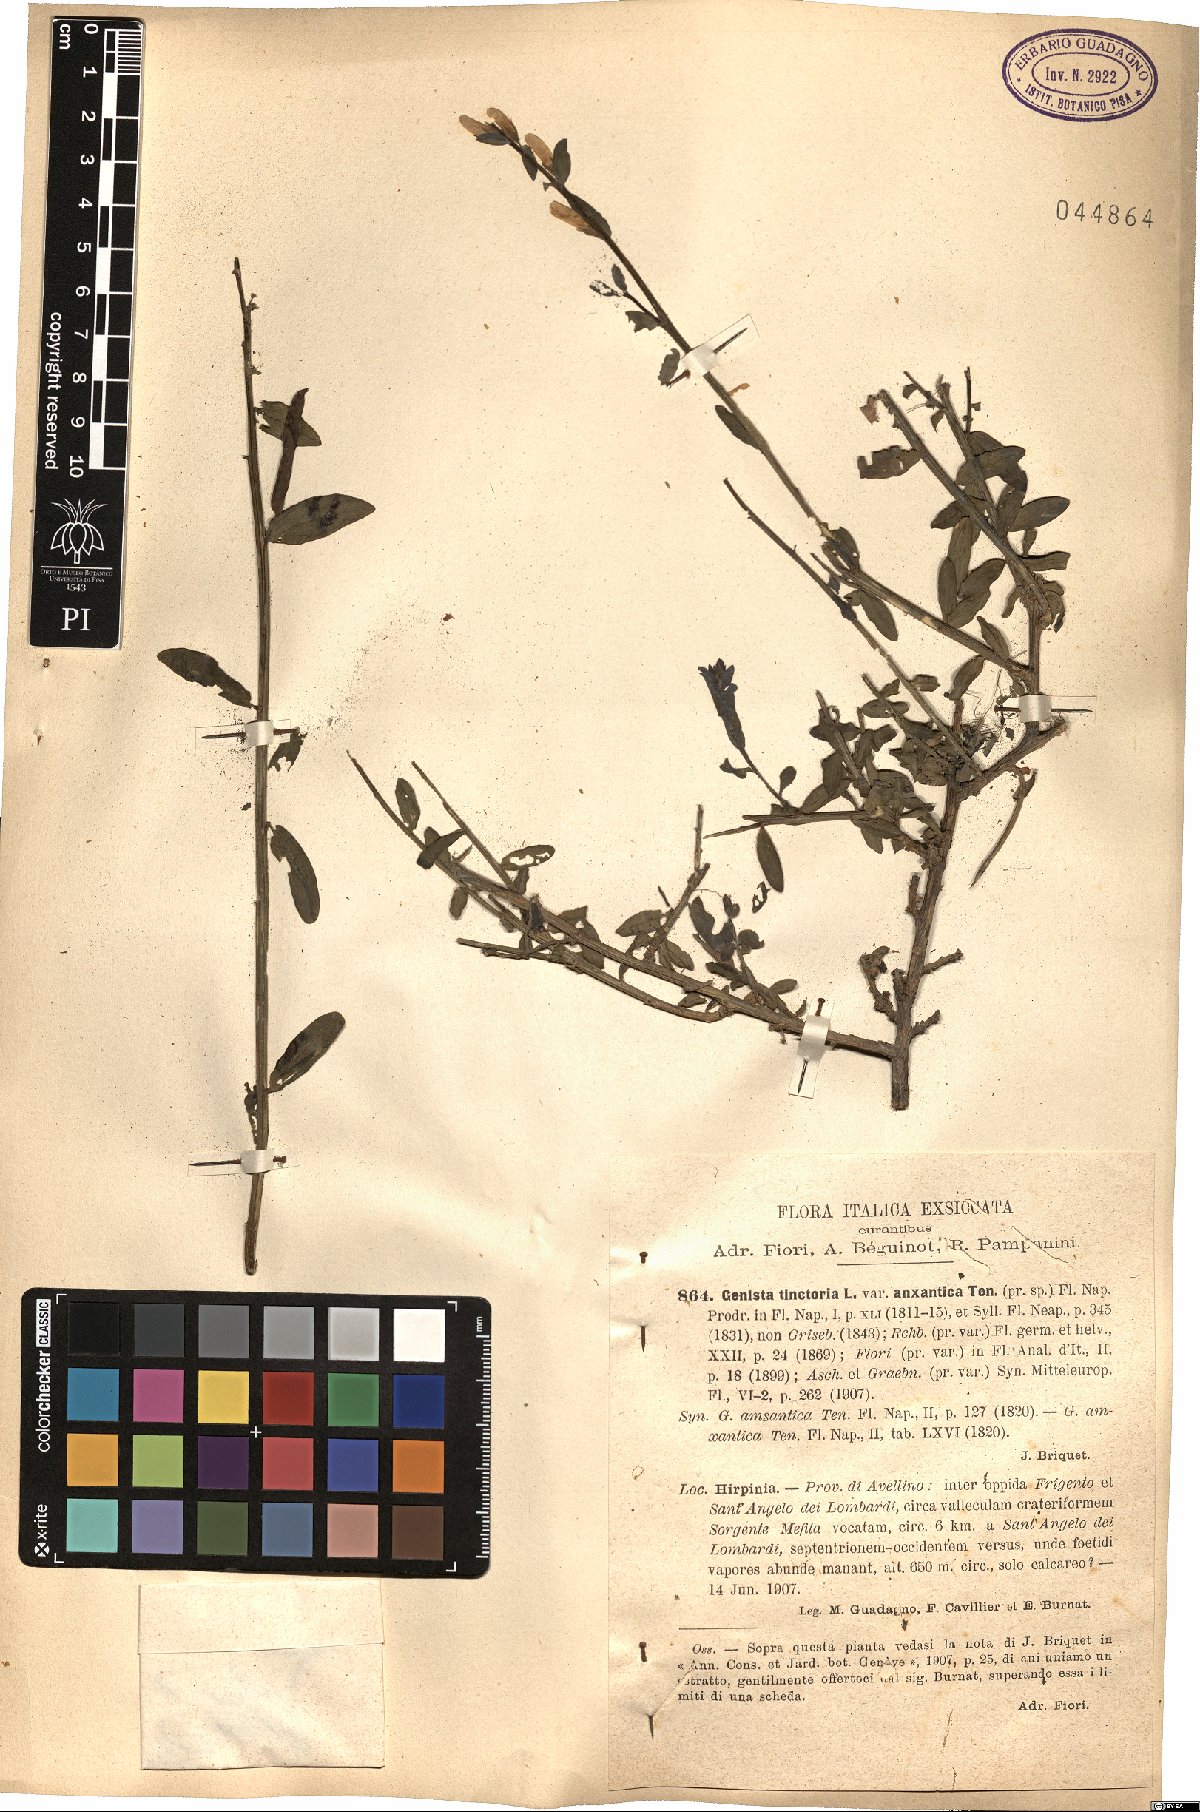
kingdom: Plantae
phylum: Tracheophyta
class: Magnoliopsida
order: Fabales
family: Fabaceae
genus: Genista
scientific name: Genista tinctoria
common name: Dyer's greenweed
